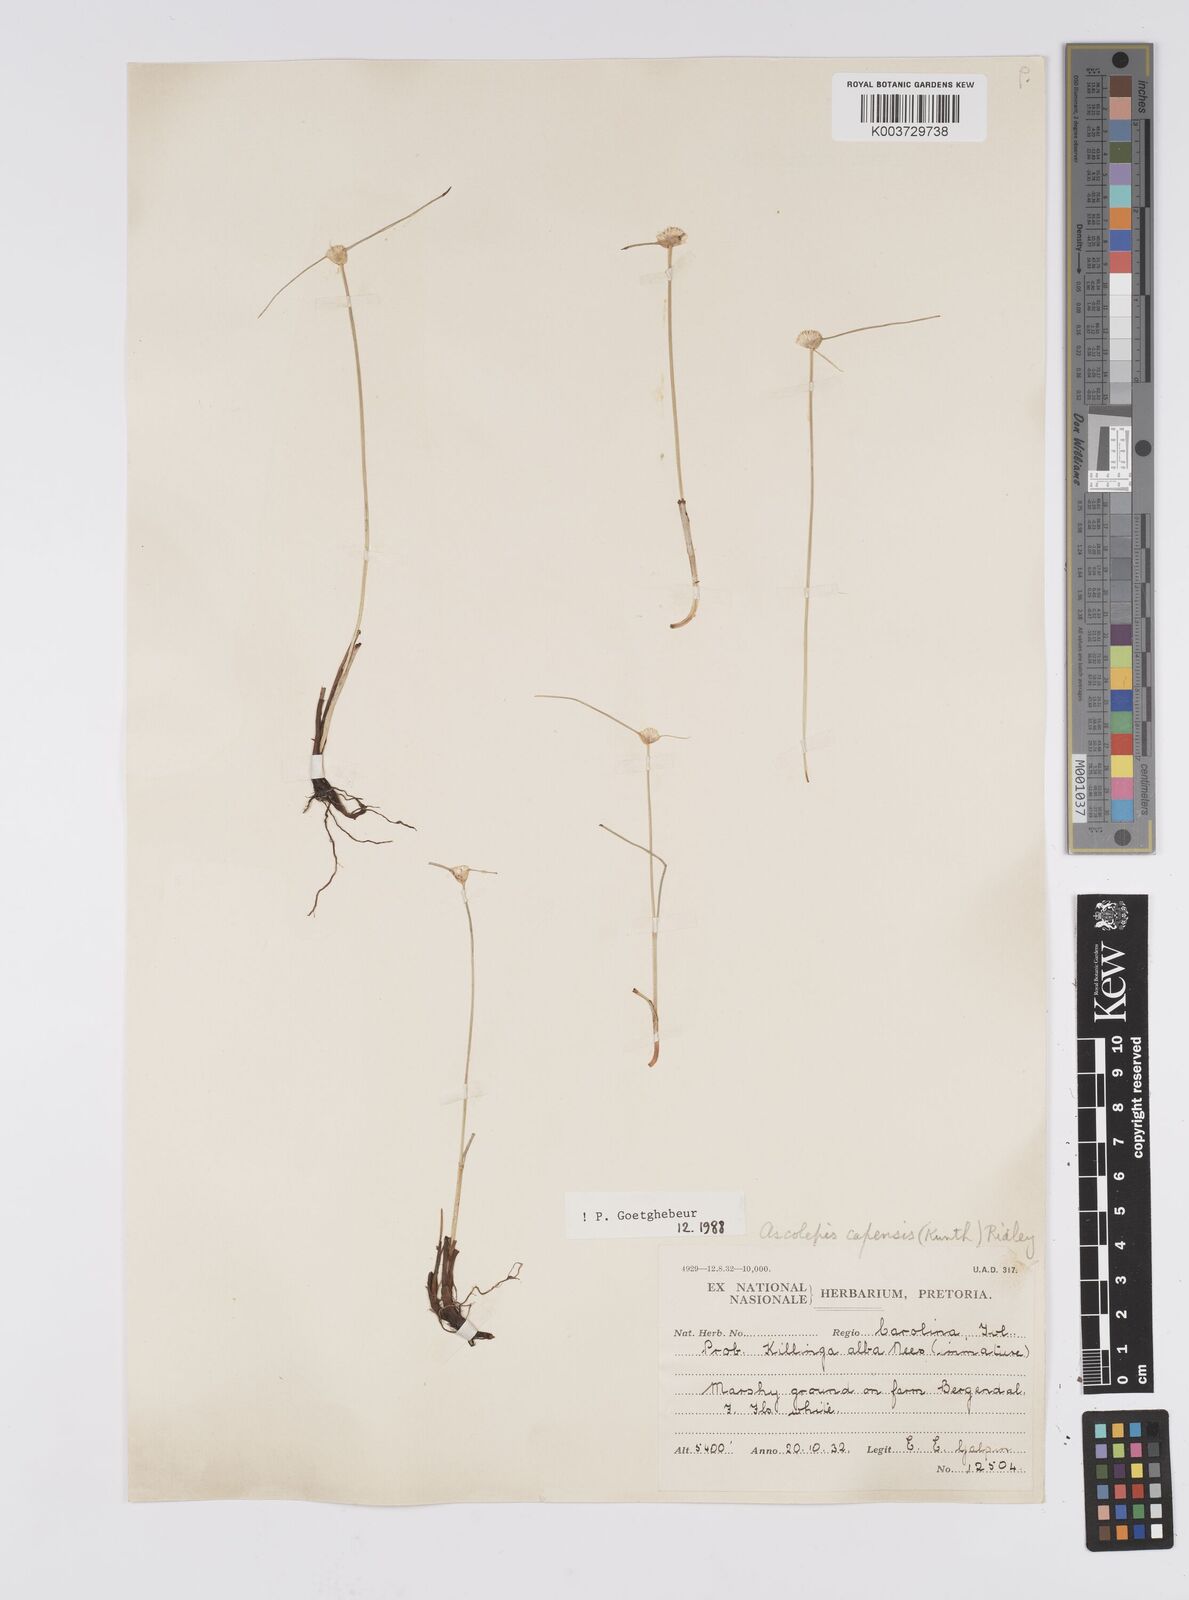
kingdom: Plantae
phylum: Tracheophyta
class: Liliopsida
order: Poales
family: Cyperaceae
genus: Cyperus
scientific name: Cyperus capensis
